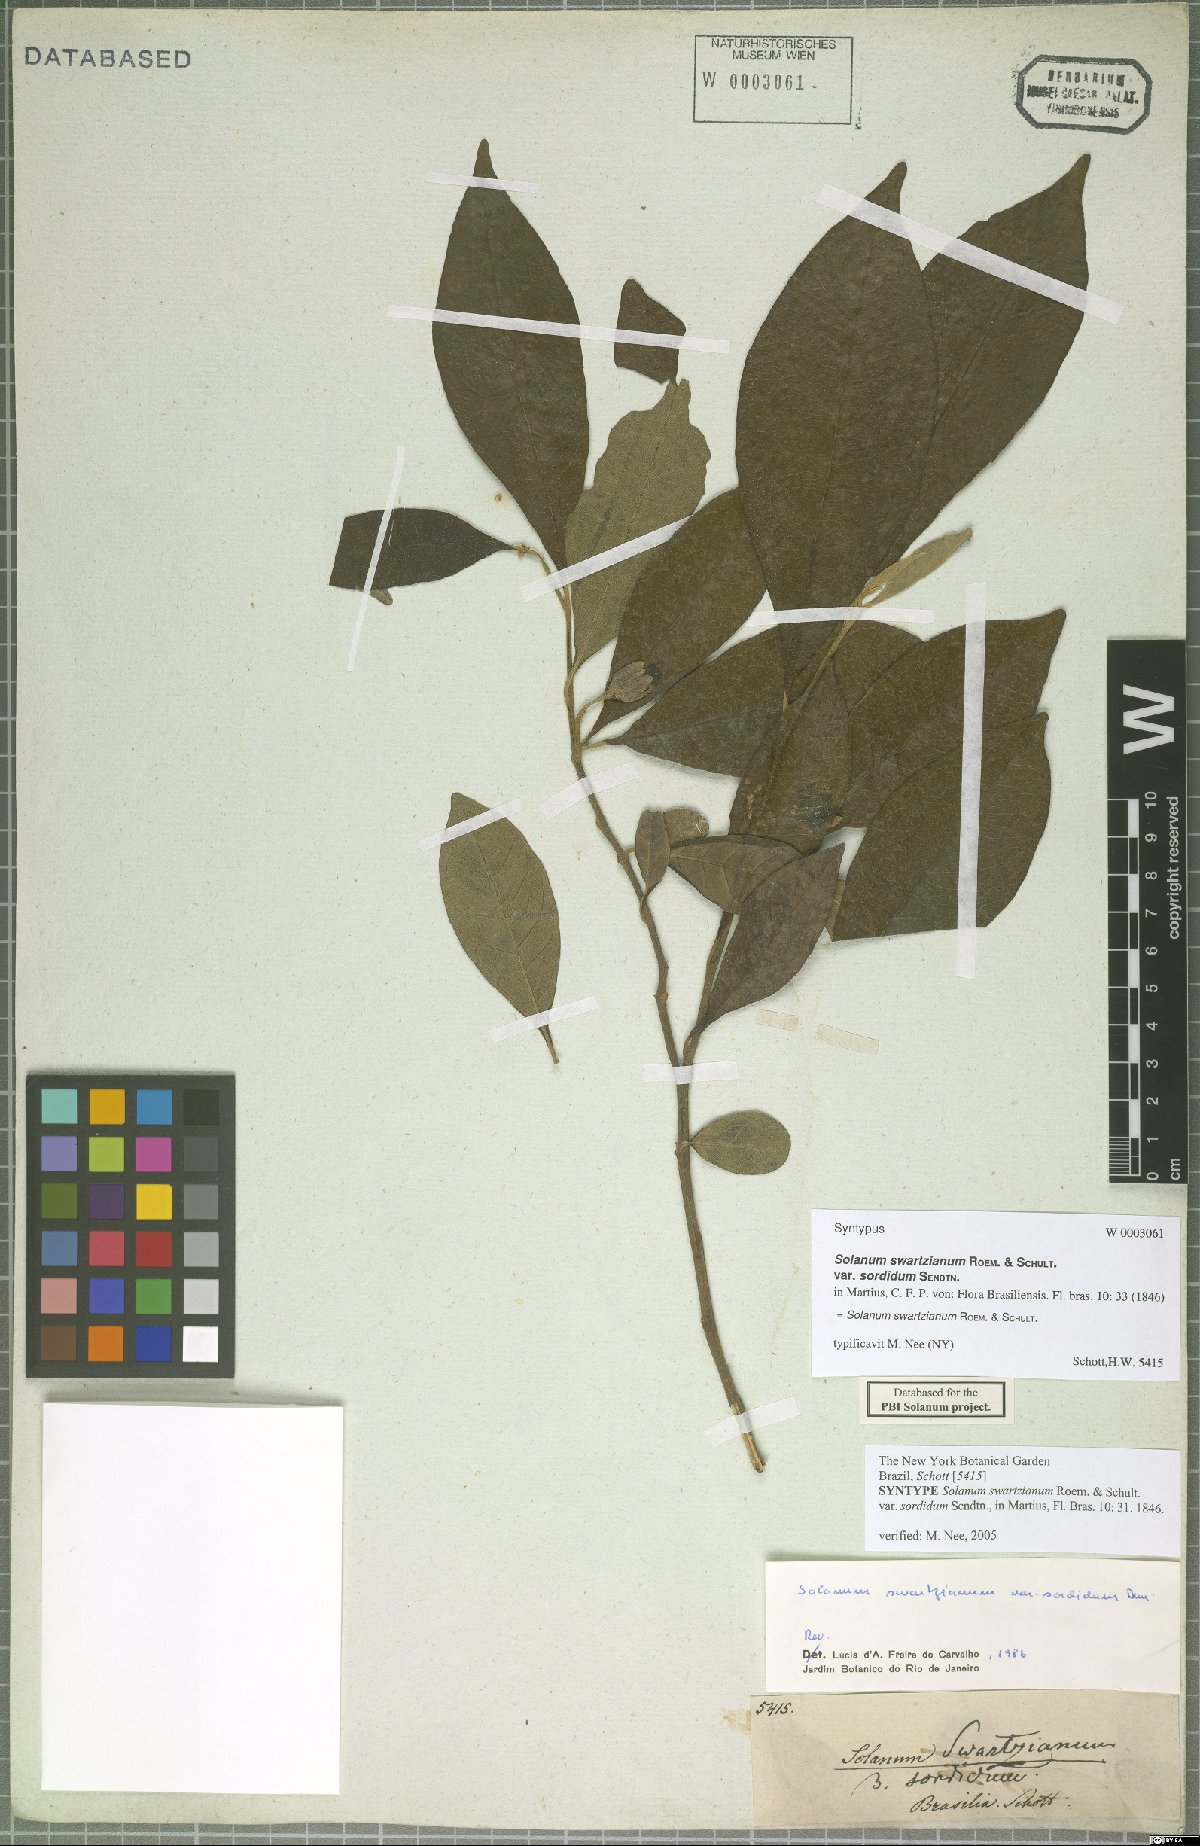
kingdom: Plantae
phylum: Tracheophyta
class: Magnoliopsida
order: Solanales
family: Solanaceae
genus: Solanum
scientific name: Solanum swartzianum
